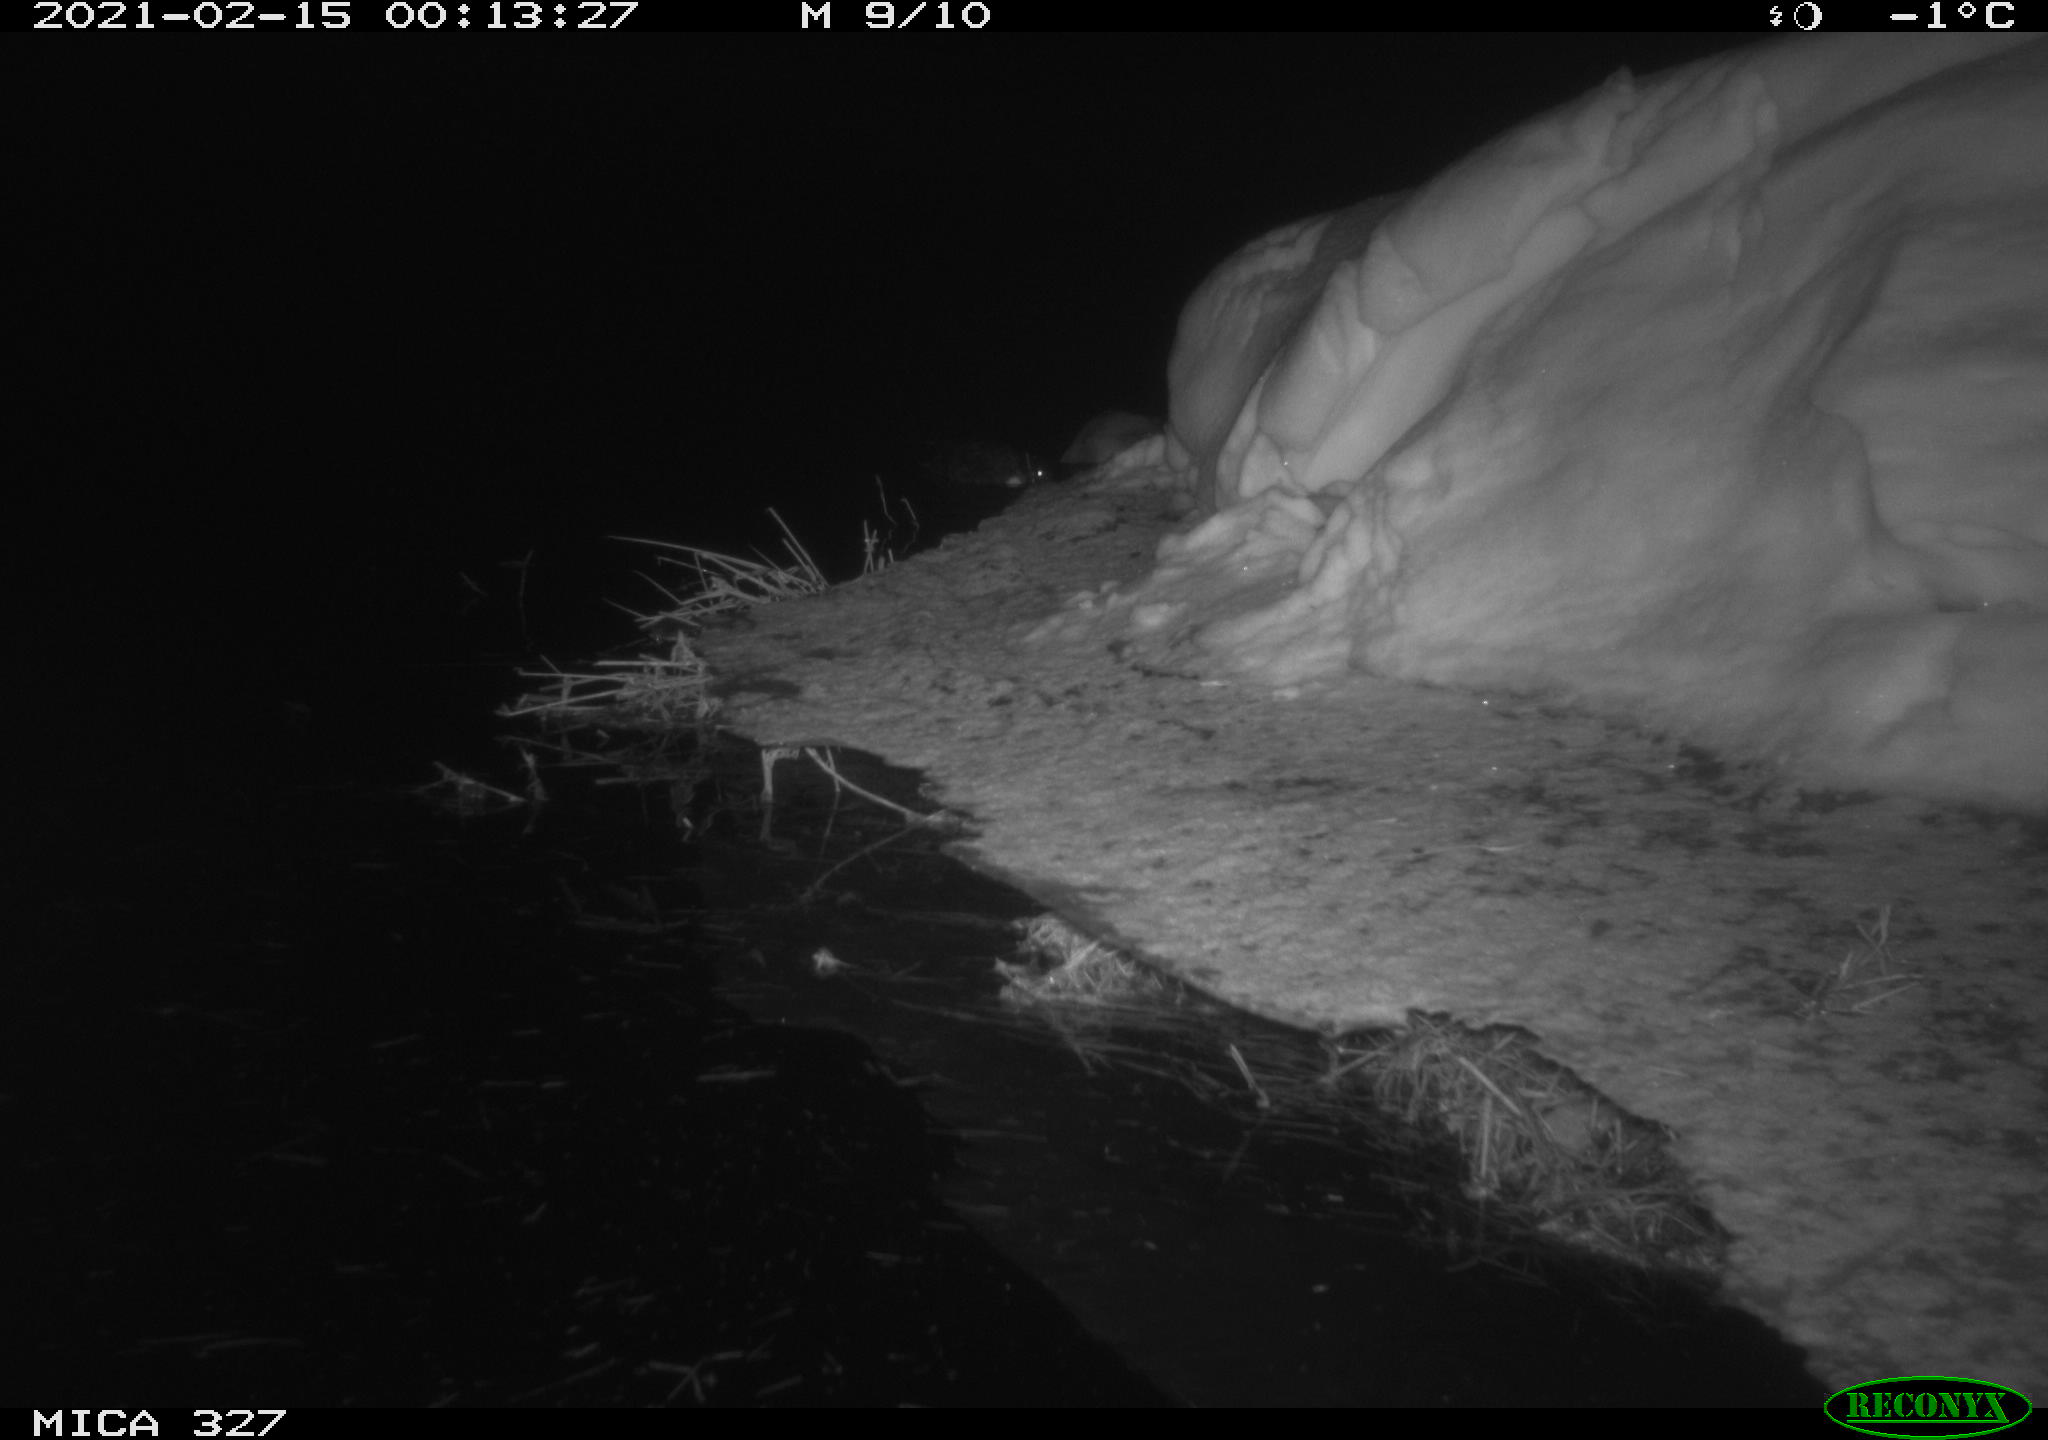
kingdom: Animalia
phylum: Chordata
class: Aves
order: Anseriformes
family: Anatidae
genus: Anas
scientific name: Anas
